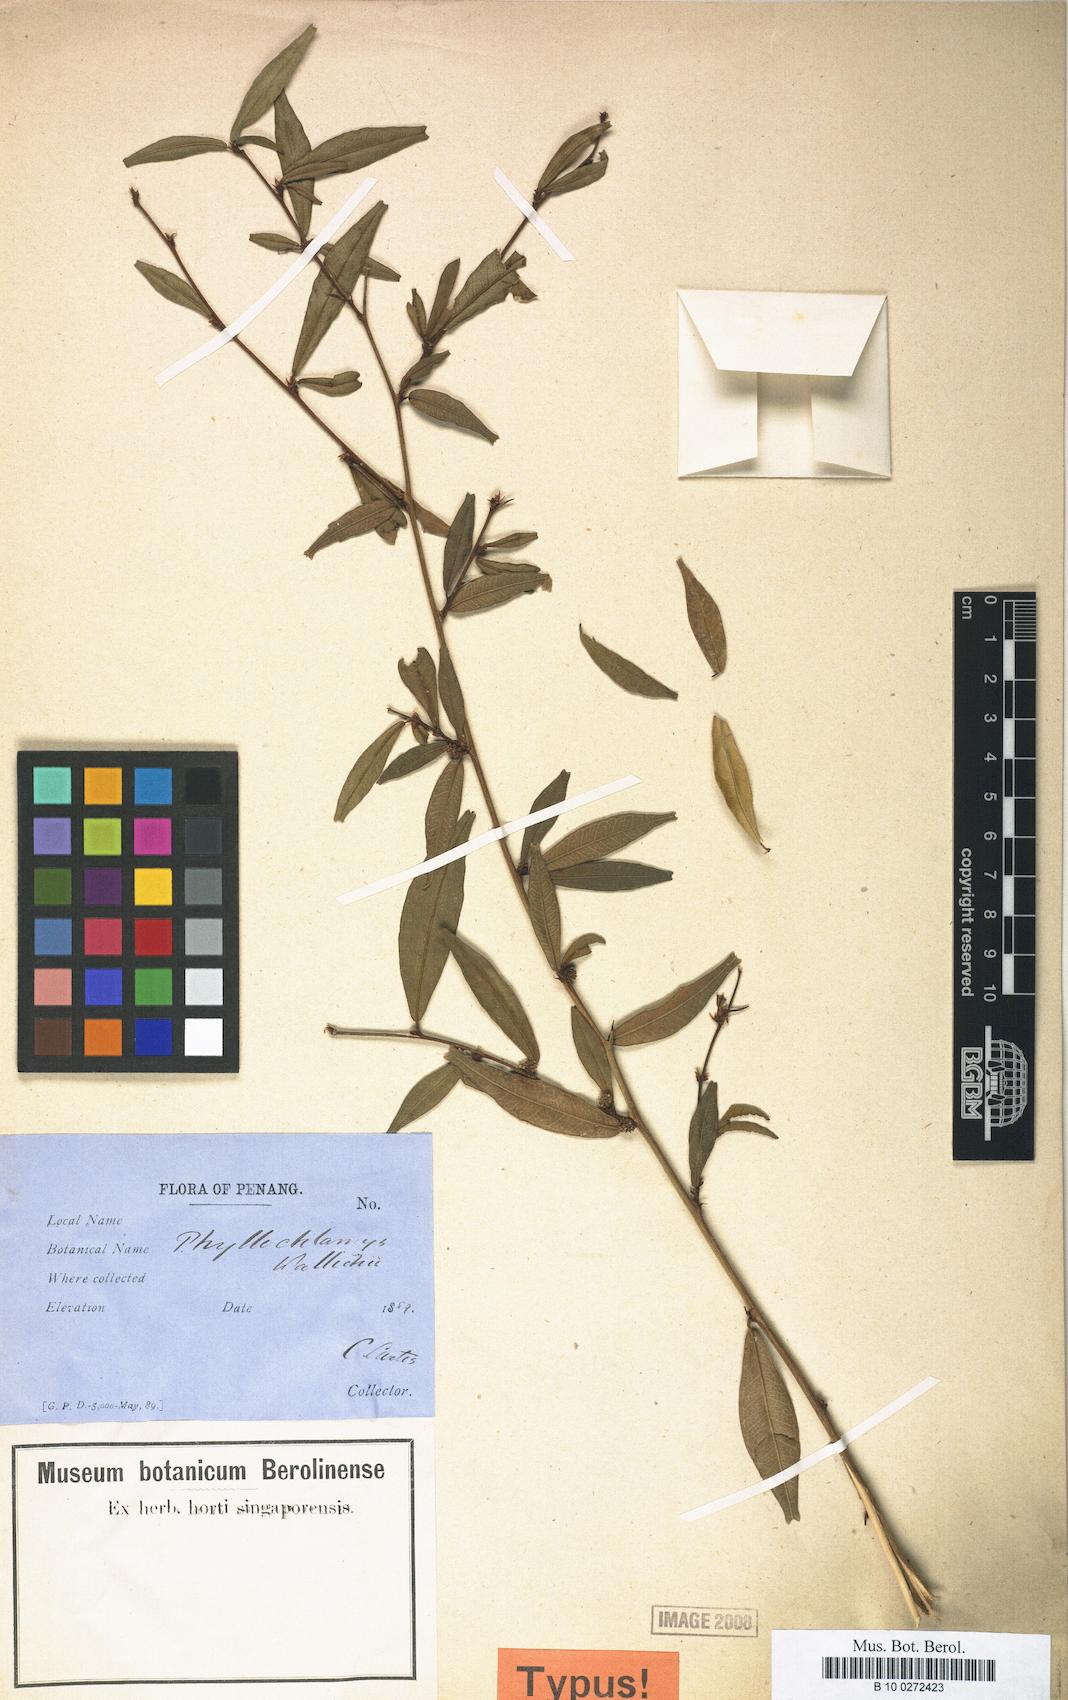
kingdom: Plantae
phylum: Tracheophyta
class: Magnoliopsida
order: Rosales
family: Moraceae
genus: Taxotrophis
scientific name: Taxotrophis taxoides
